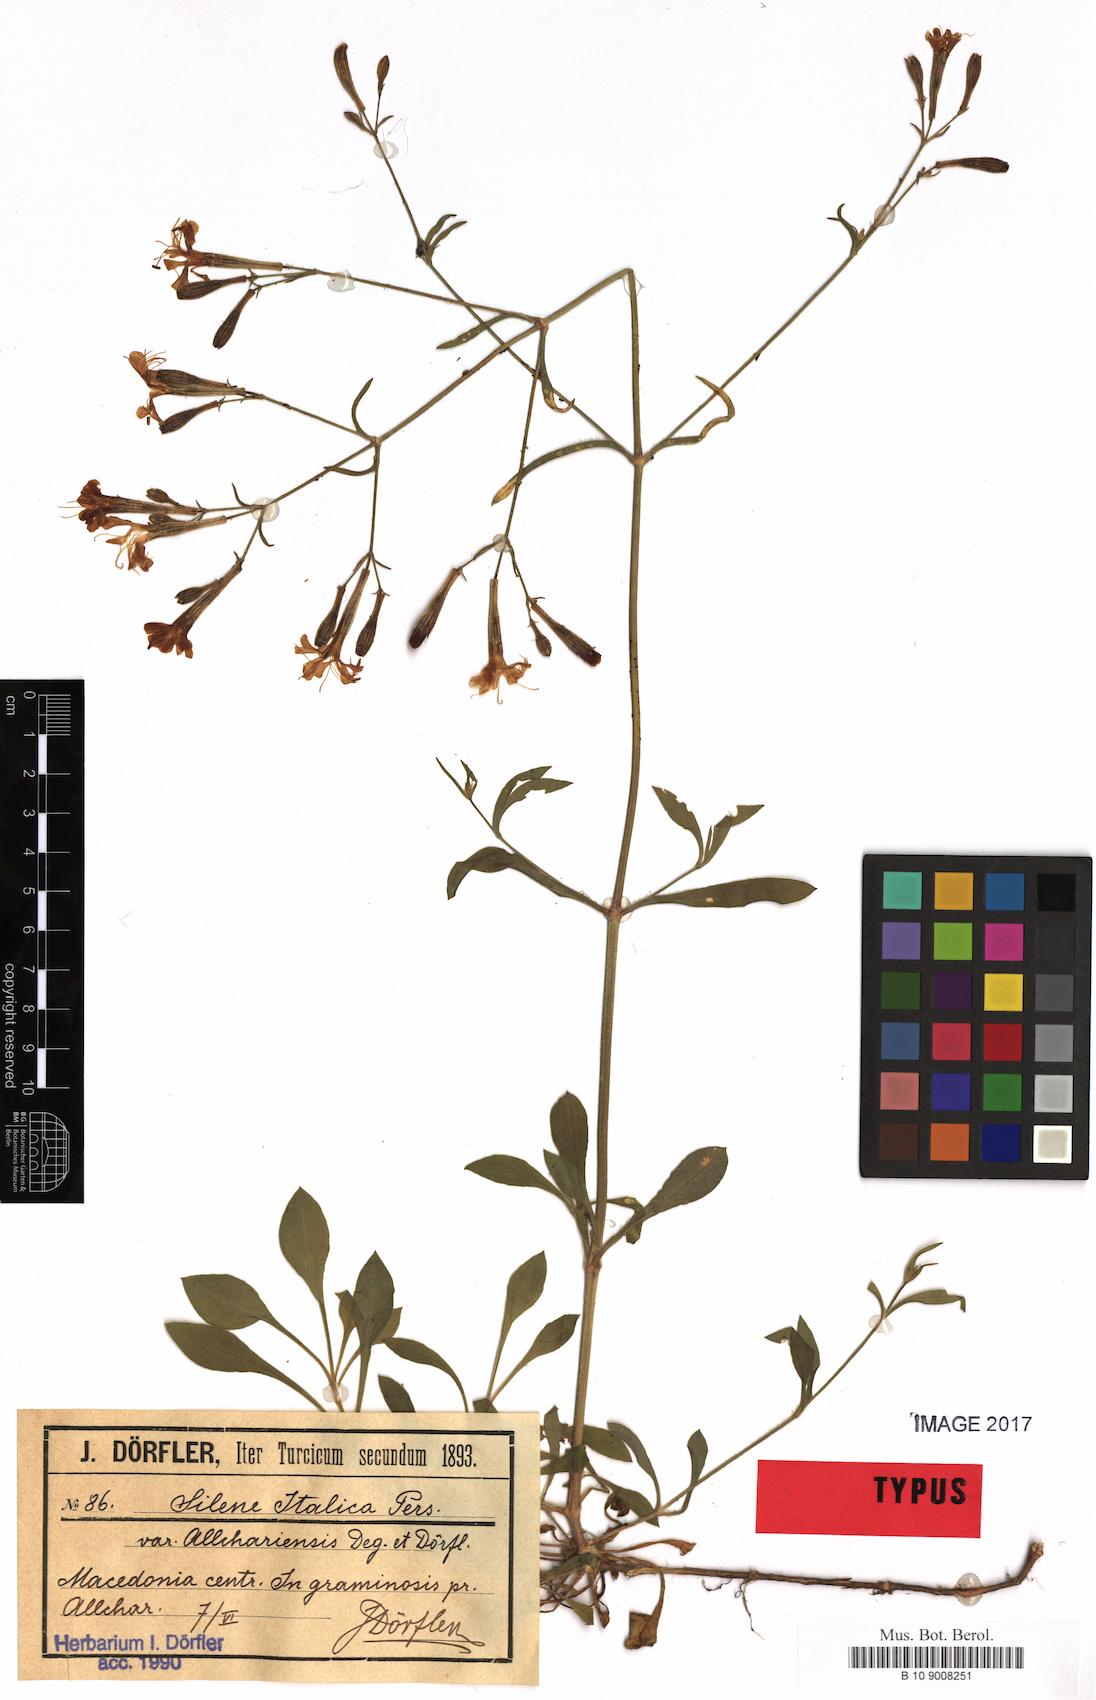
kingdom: Plantae
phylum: Tracheophyta
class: Magnoliopsida
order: Caryophyllales
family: Caryophyllaceae
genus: Silene
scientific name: Silene damboldtiana
